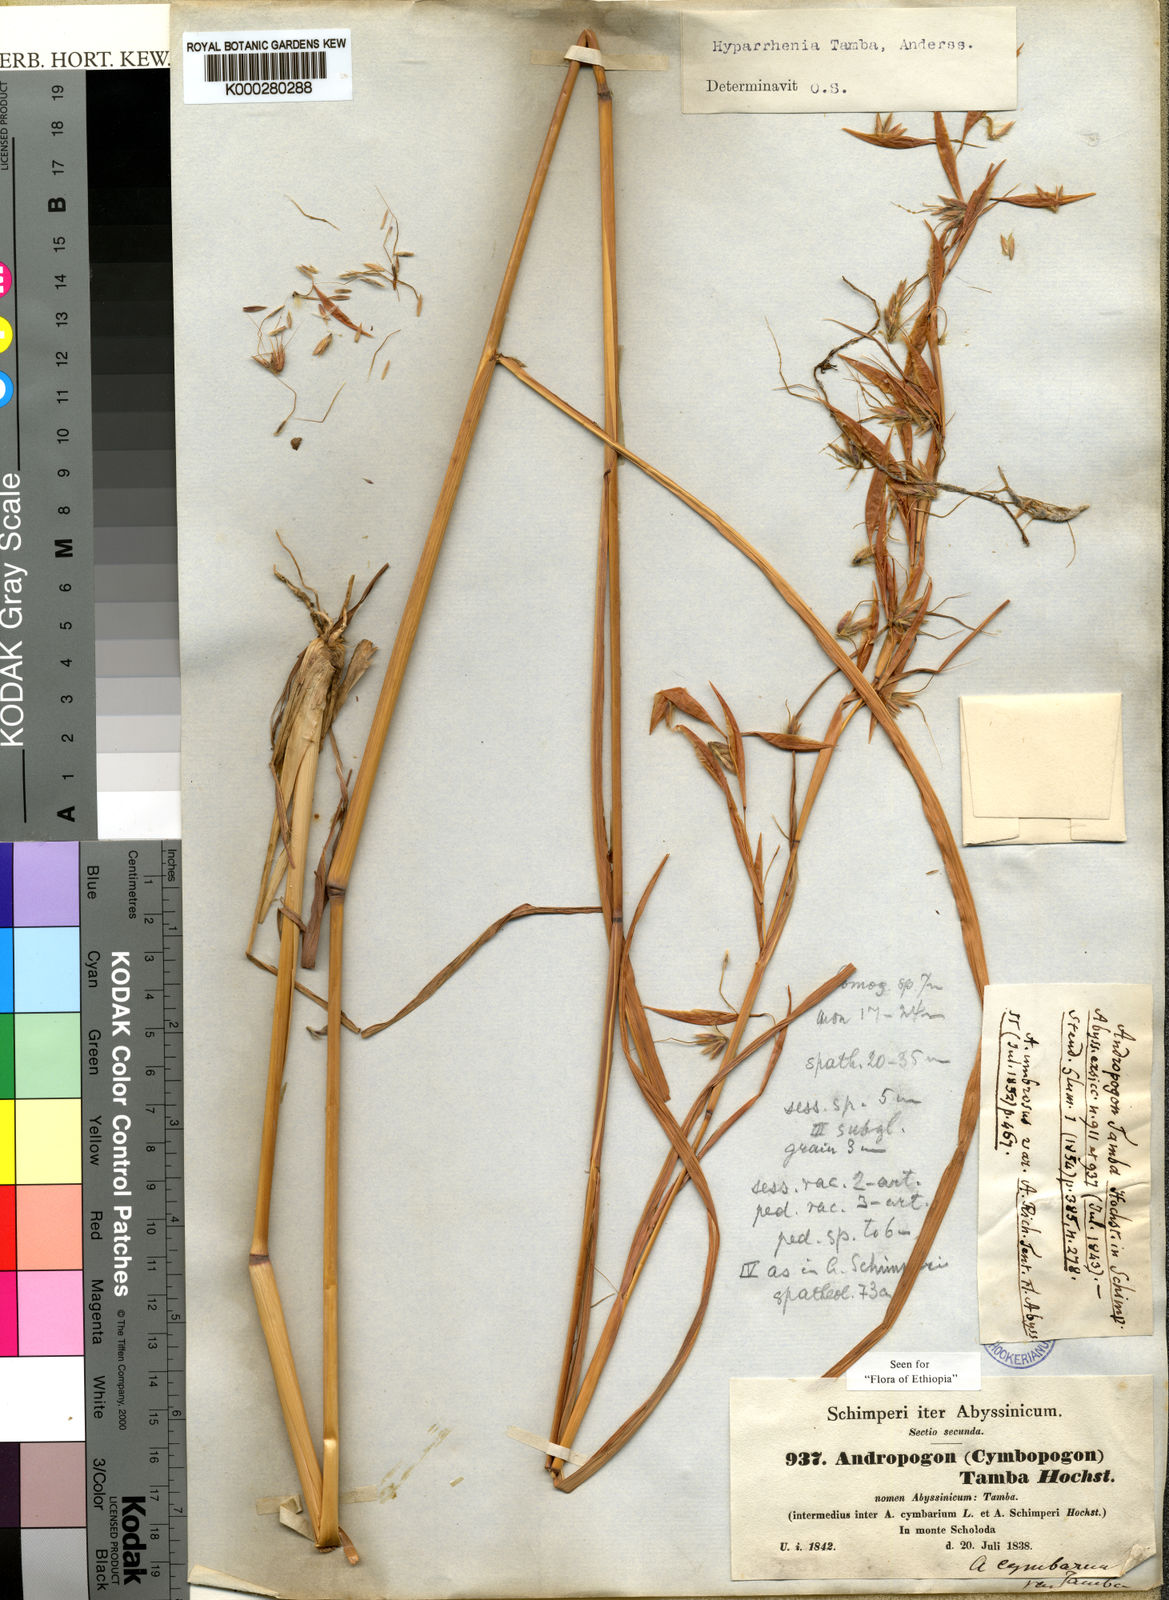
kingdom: Plantae
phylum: Tracheophyta
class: Liliopsida
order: Poales
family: Poaceae
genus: Hyparrhenia
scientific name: Hyparrhenia tamba
